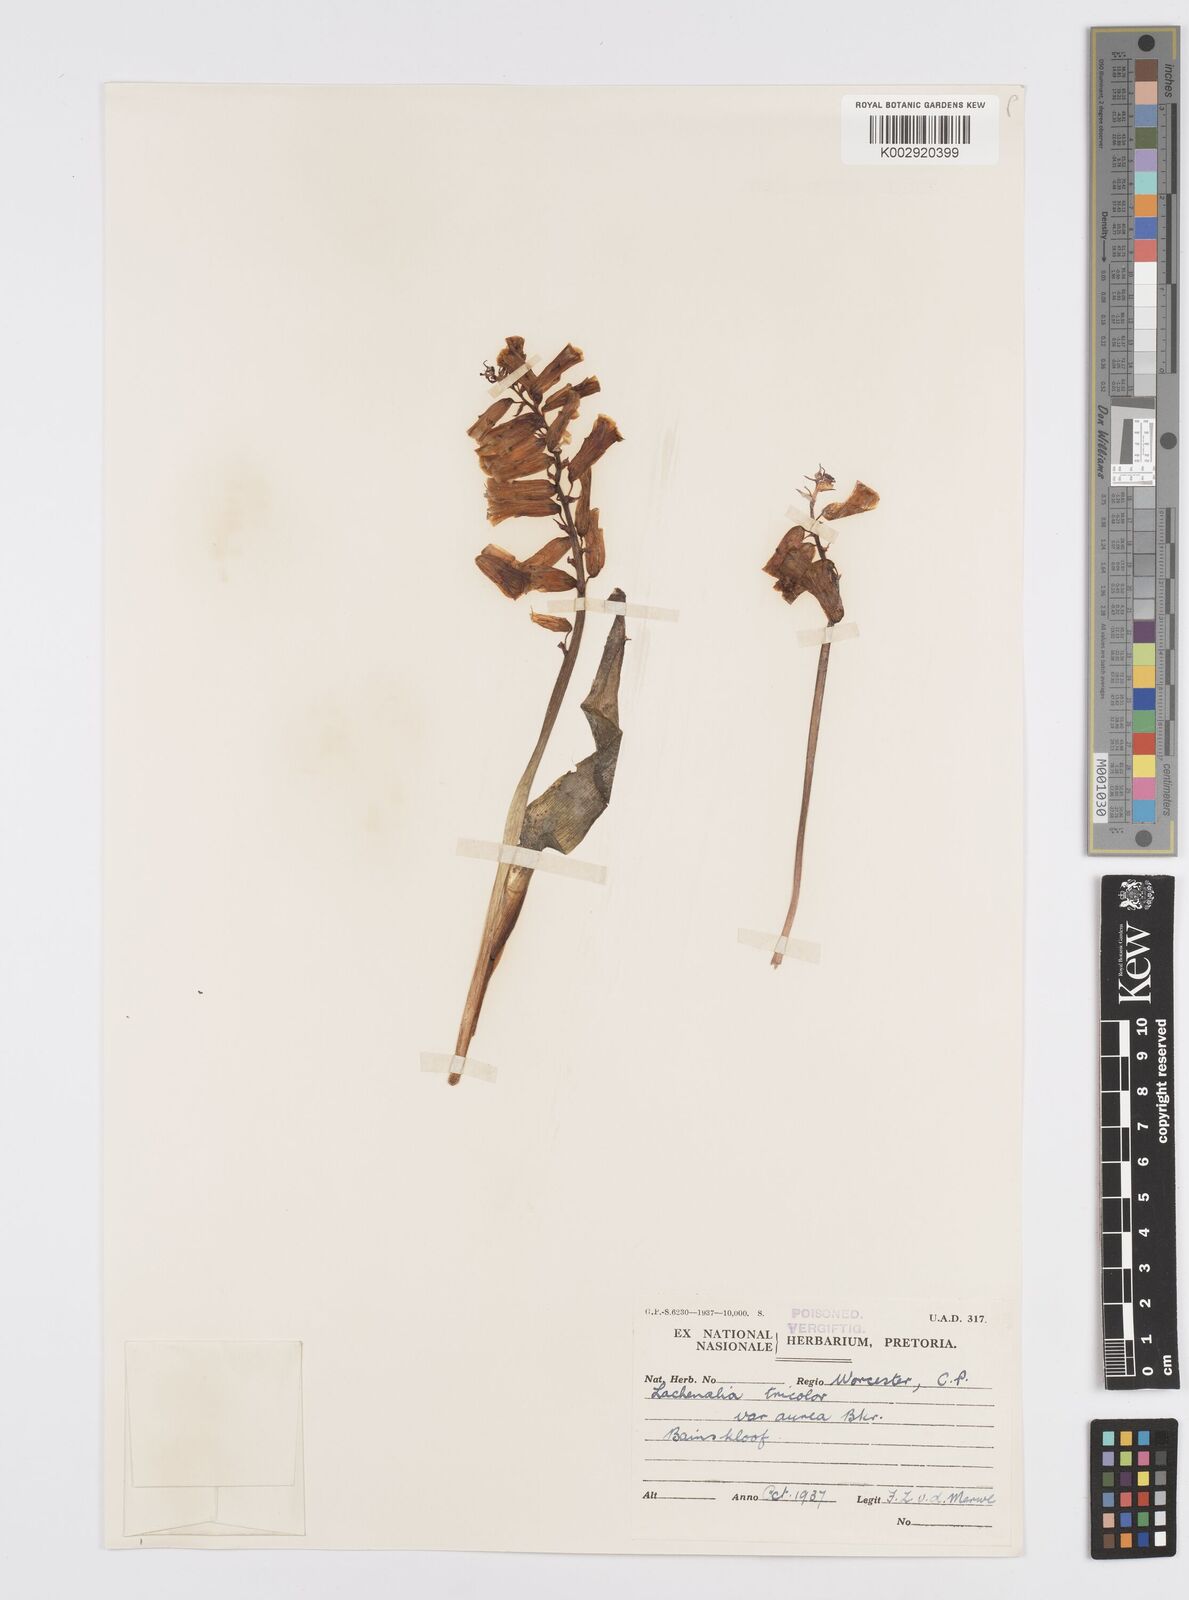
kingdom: Plantae
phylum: Tracheophyta
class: Liliopsida
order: Asparagales
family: Asparagaceae
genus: Lachenalia
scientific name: Lachenalia
